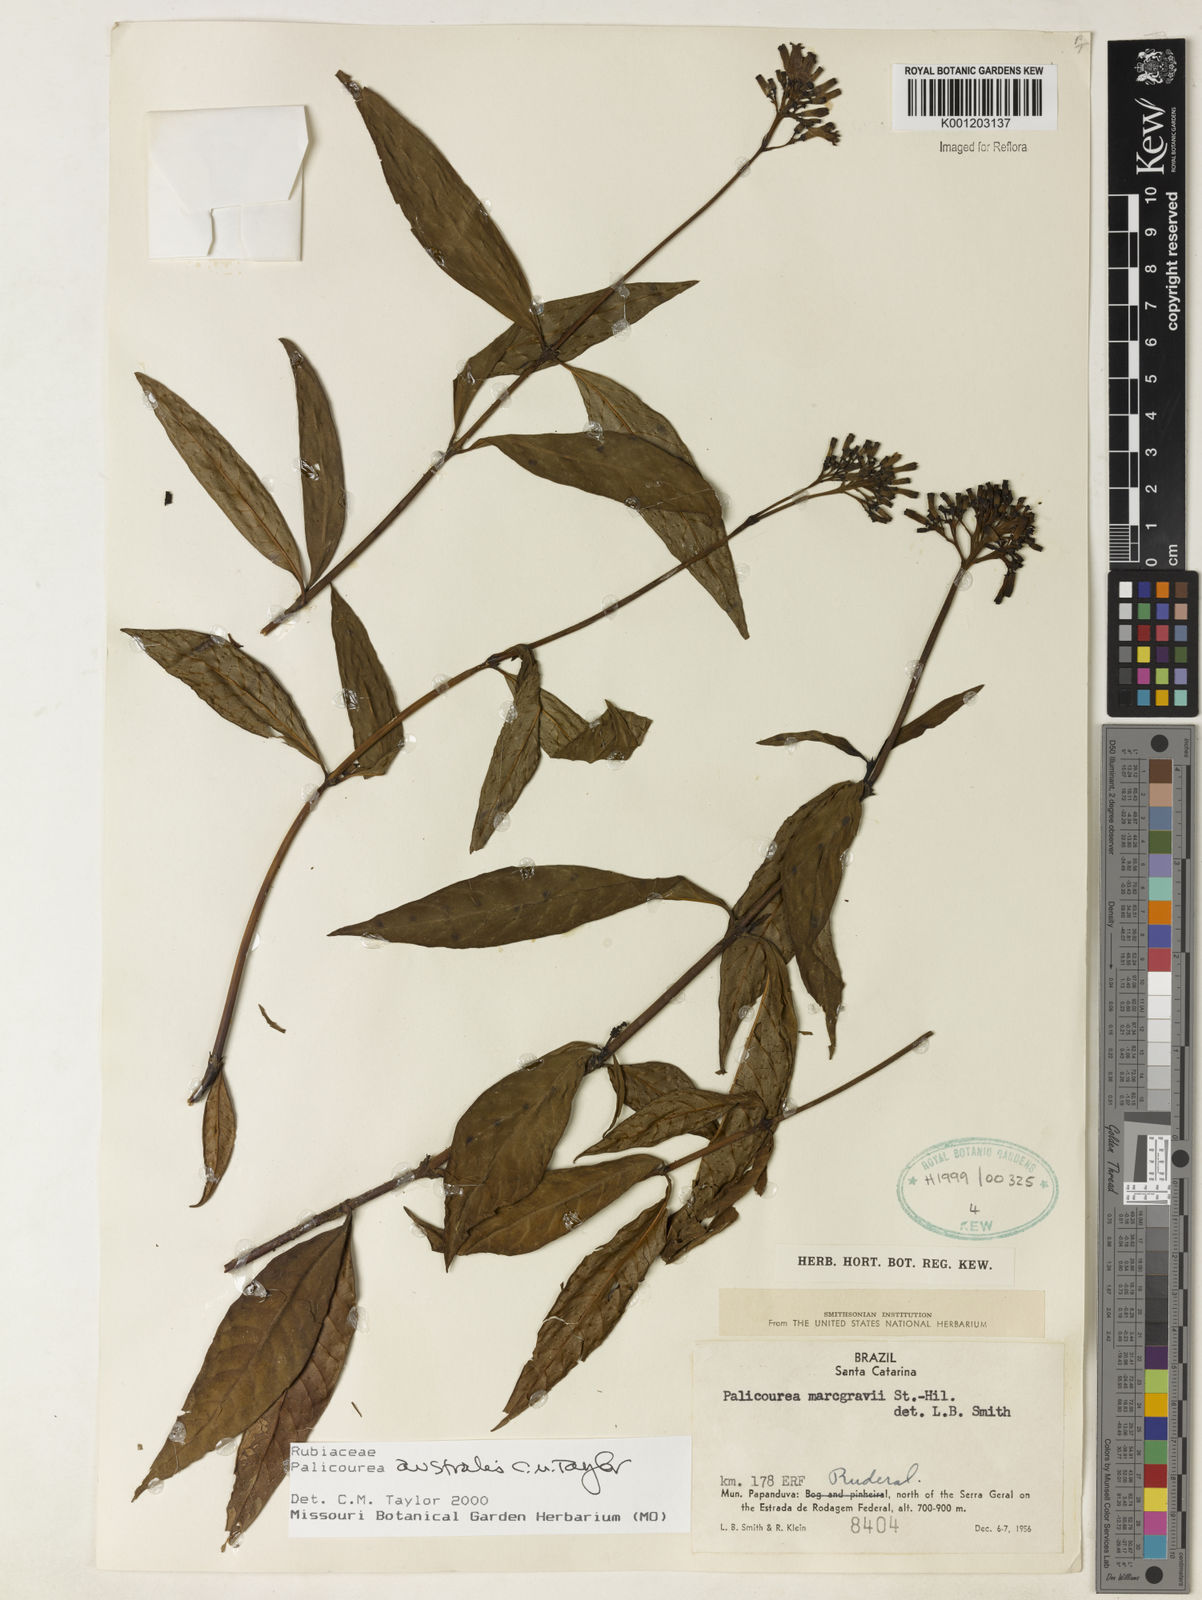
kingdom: Plantae
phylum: Tracheophyta
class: Magnoliopsida
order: Gentianales
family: Rubiaceae
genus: Palicourea
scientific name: Palicourea australis
